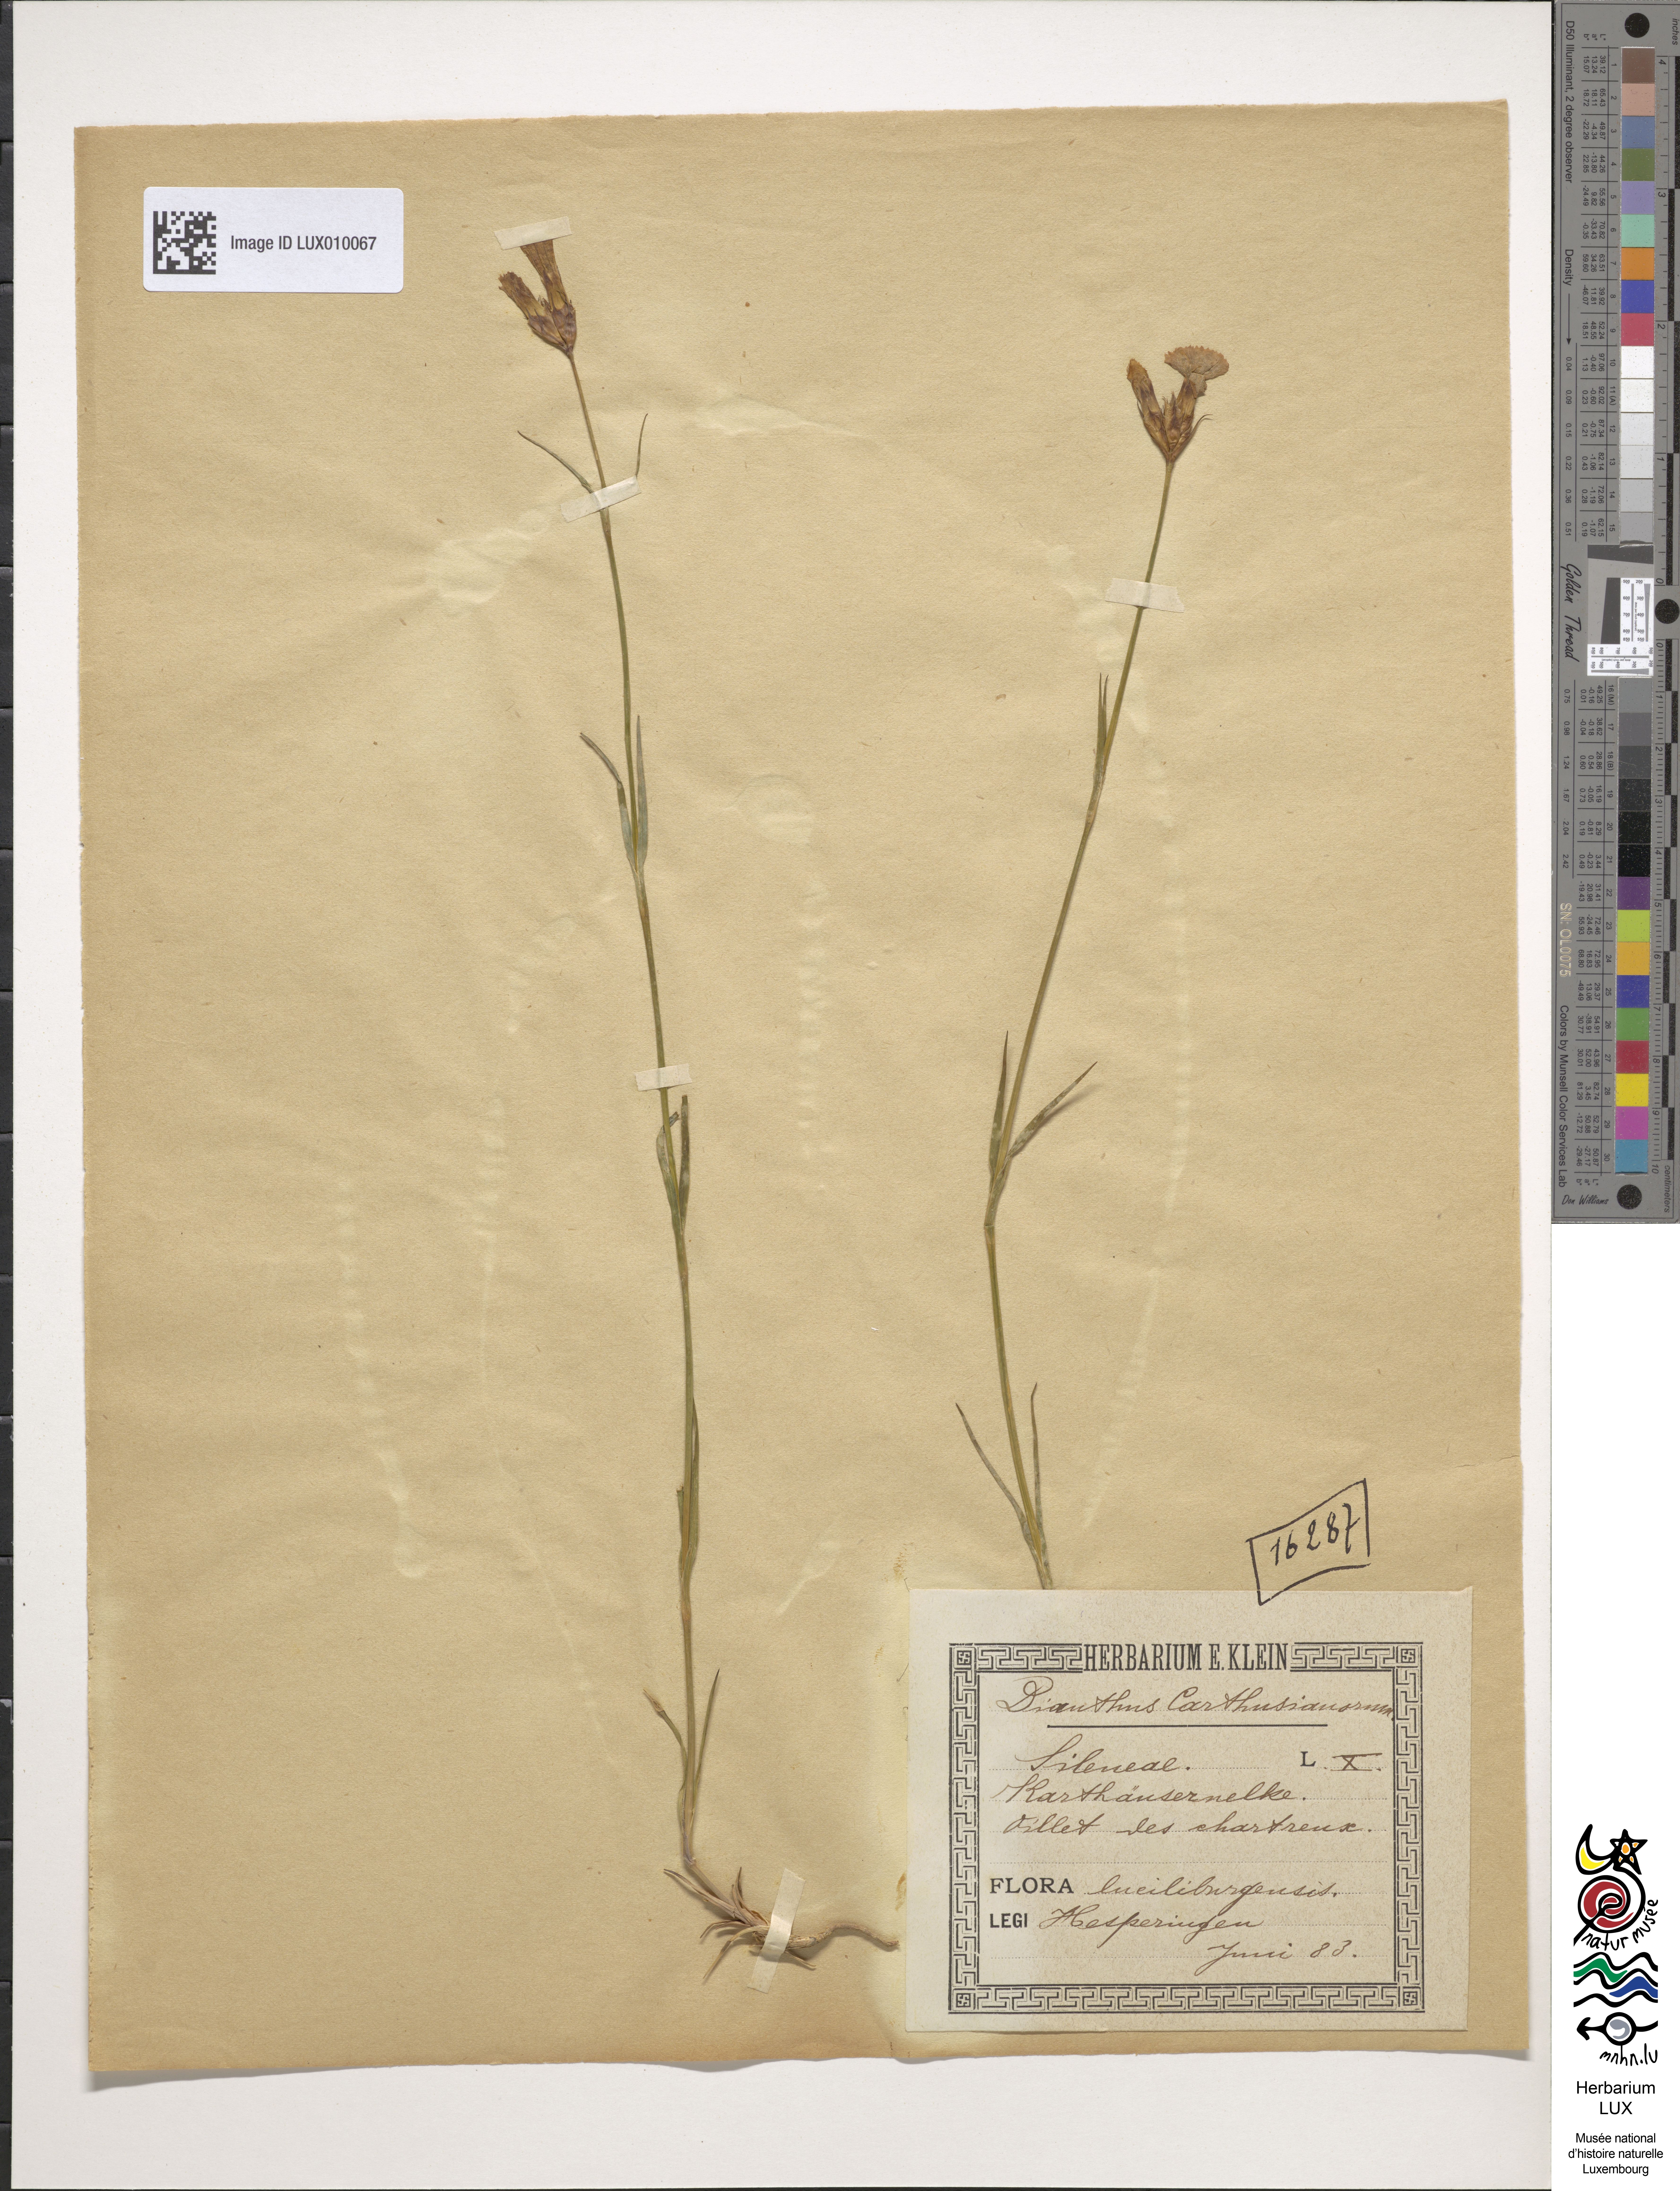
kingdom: Plantae
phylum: Tracheophyta
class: Magnoliopsida
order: Caryophyllales
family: Caryophyllaceae
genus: Dianthus
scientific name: Dianthus carthusianorum
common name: Carthusian pink
